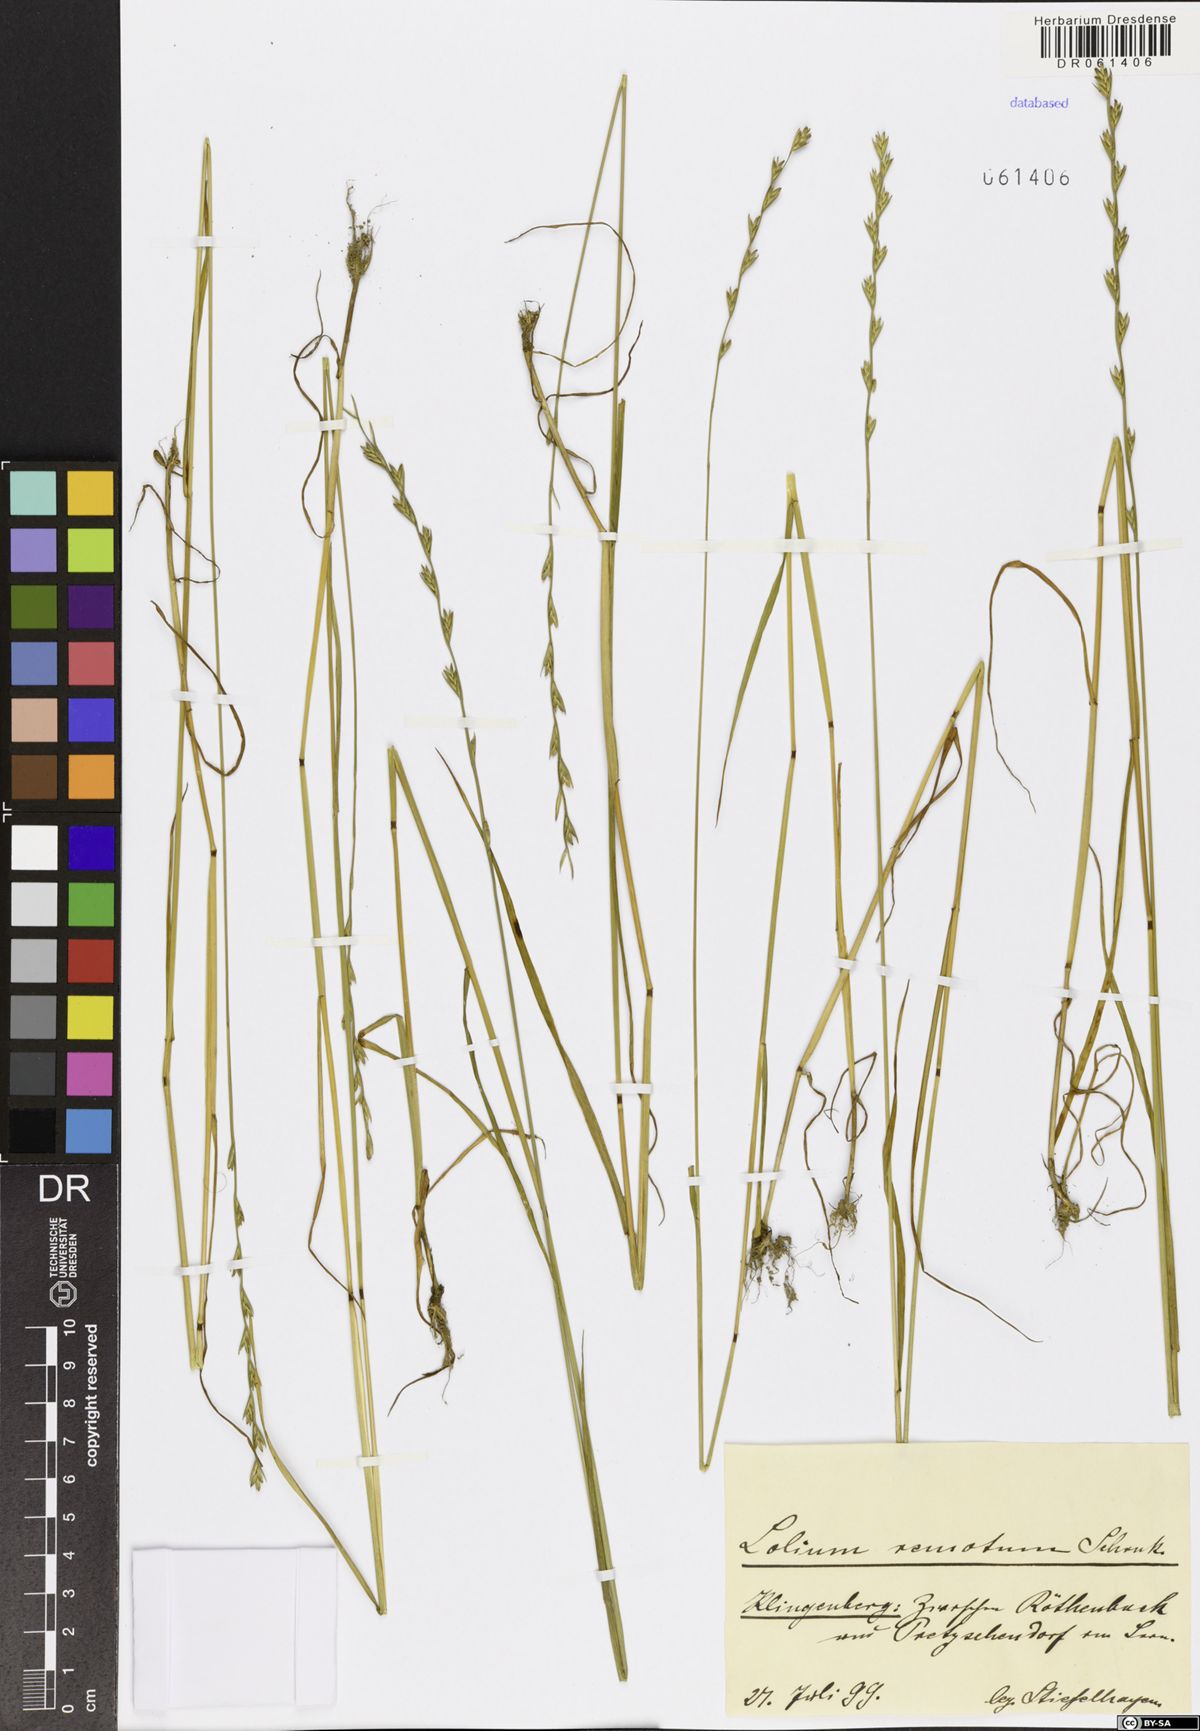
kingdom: Plantae
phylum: Tracheophyta
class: Liliopsida
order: Poales
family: Poaceae
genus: Lolium
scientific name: Lolium remotum
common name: Flaxfield rye-grass
